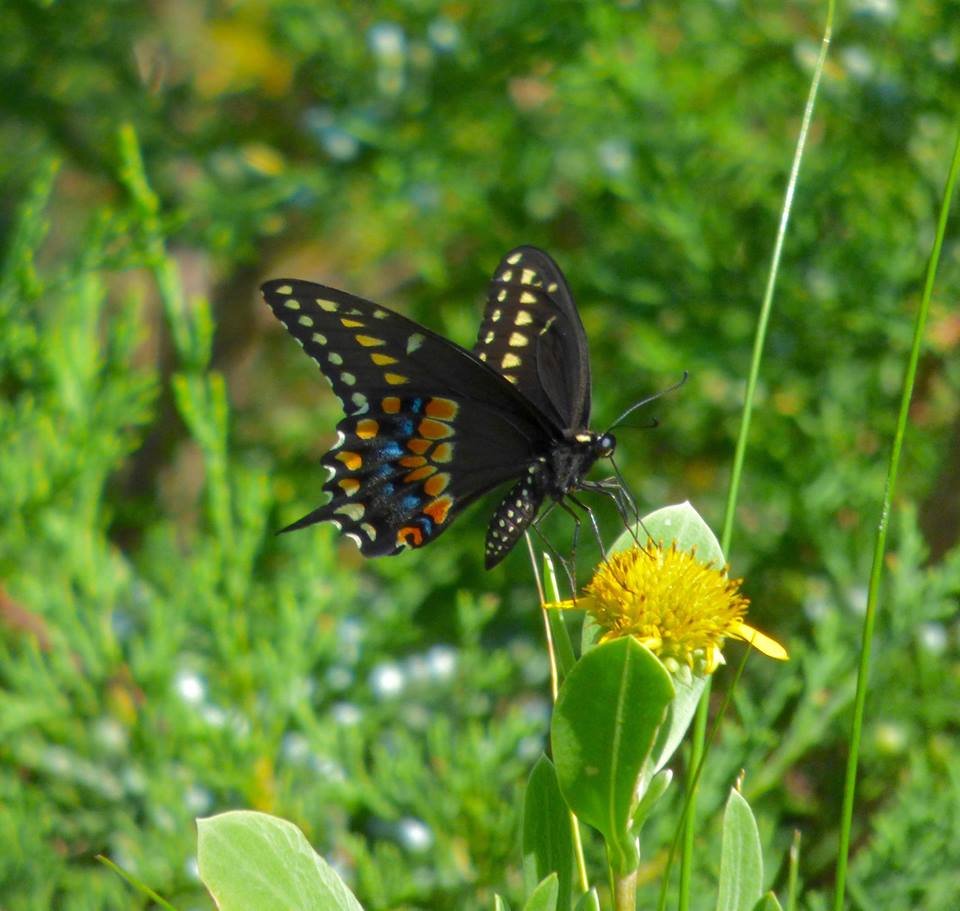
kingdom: Animalia
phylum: Arthropoda
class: Insecta
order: Lepidoptera
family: Papilionidae
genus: Papilio
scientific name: Papilio polyxenes
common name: Black Swallowtail
